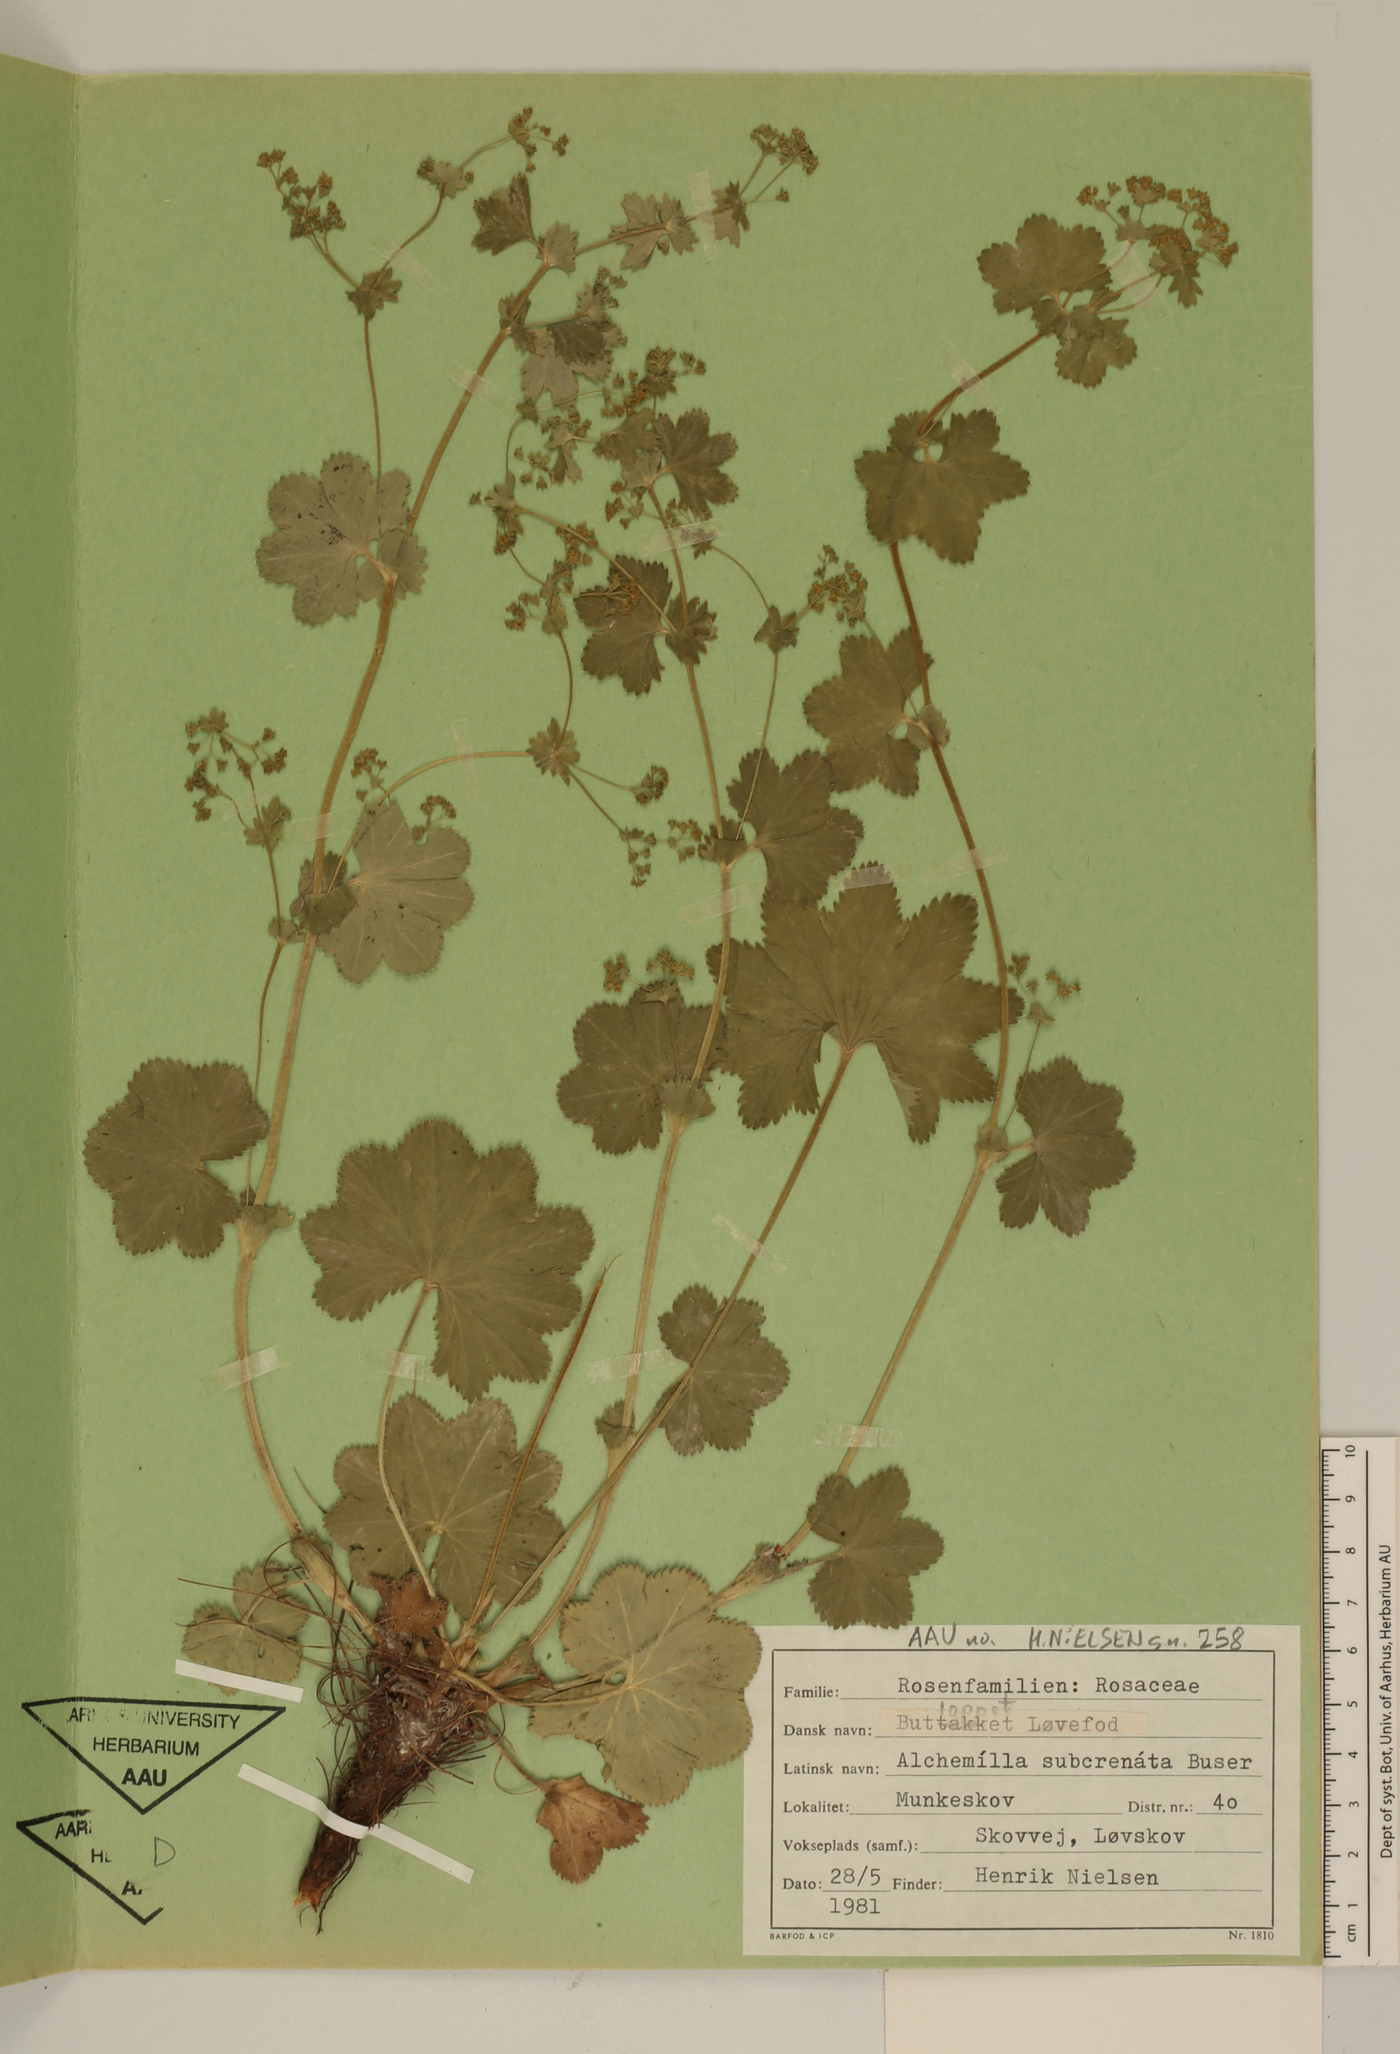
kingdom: Plantae
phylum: Tracheophyta
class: Magnoliopsida
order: Rosales
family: Rosaceae
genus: Alchemilla
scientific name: Alchemilla micans
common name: Gleaming lady's mantle
